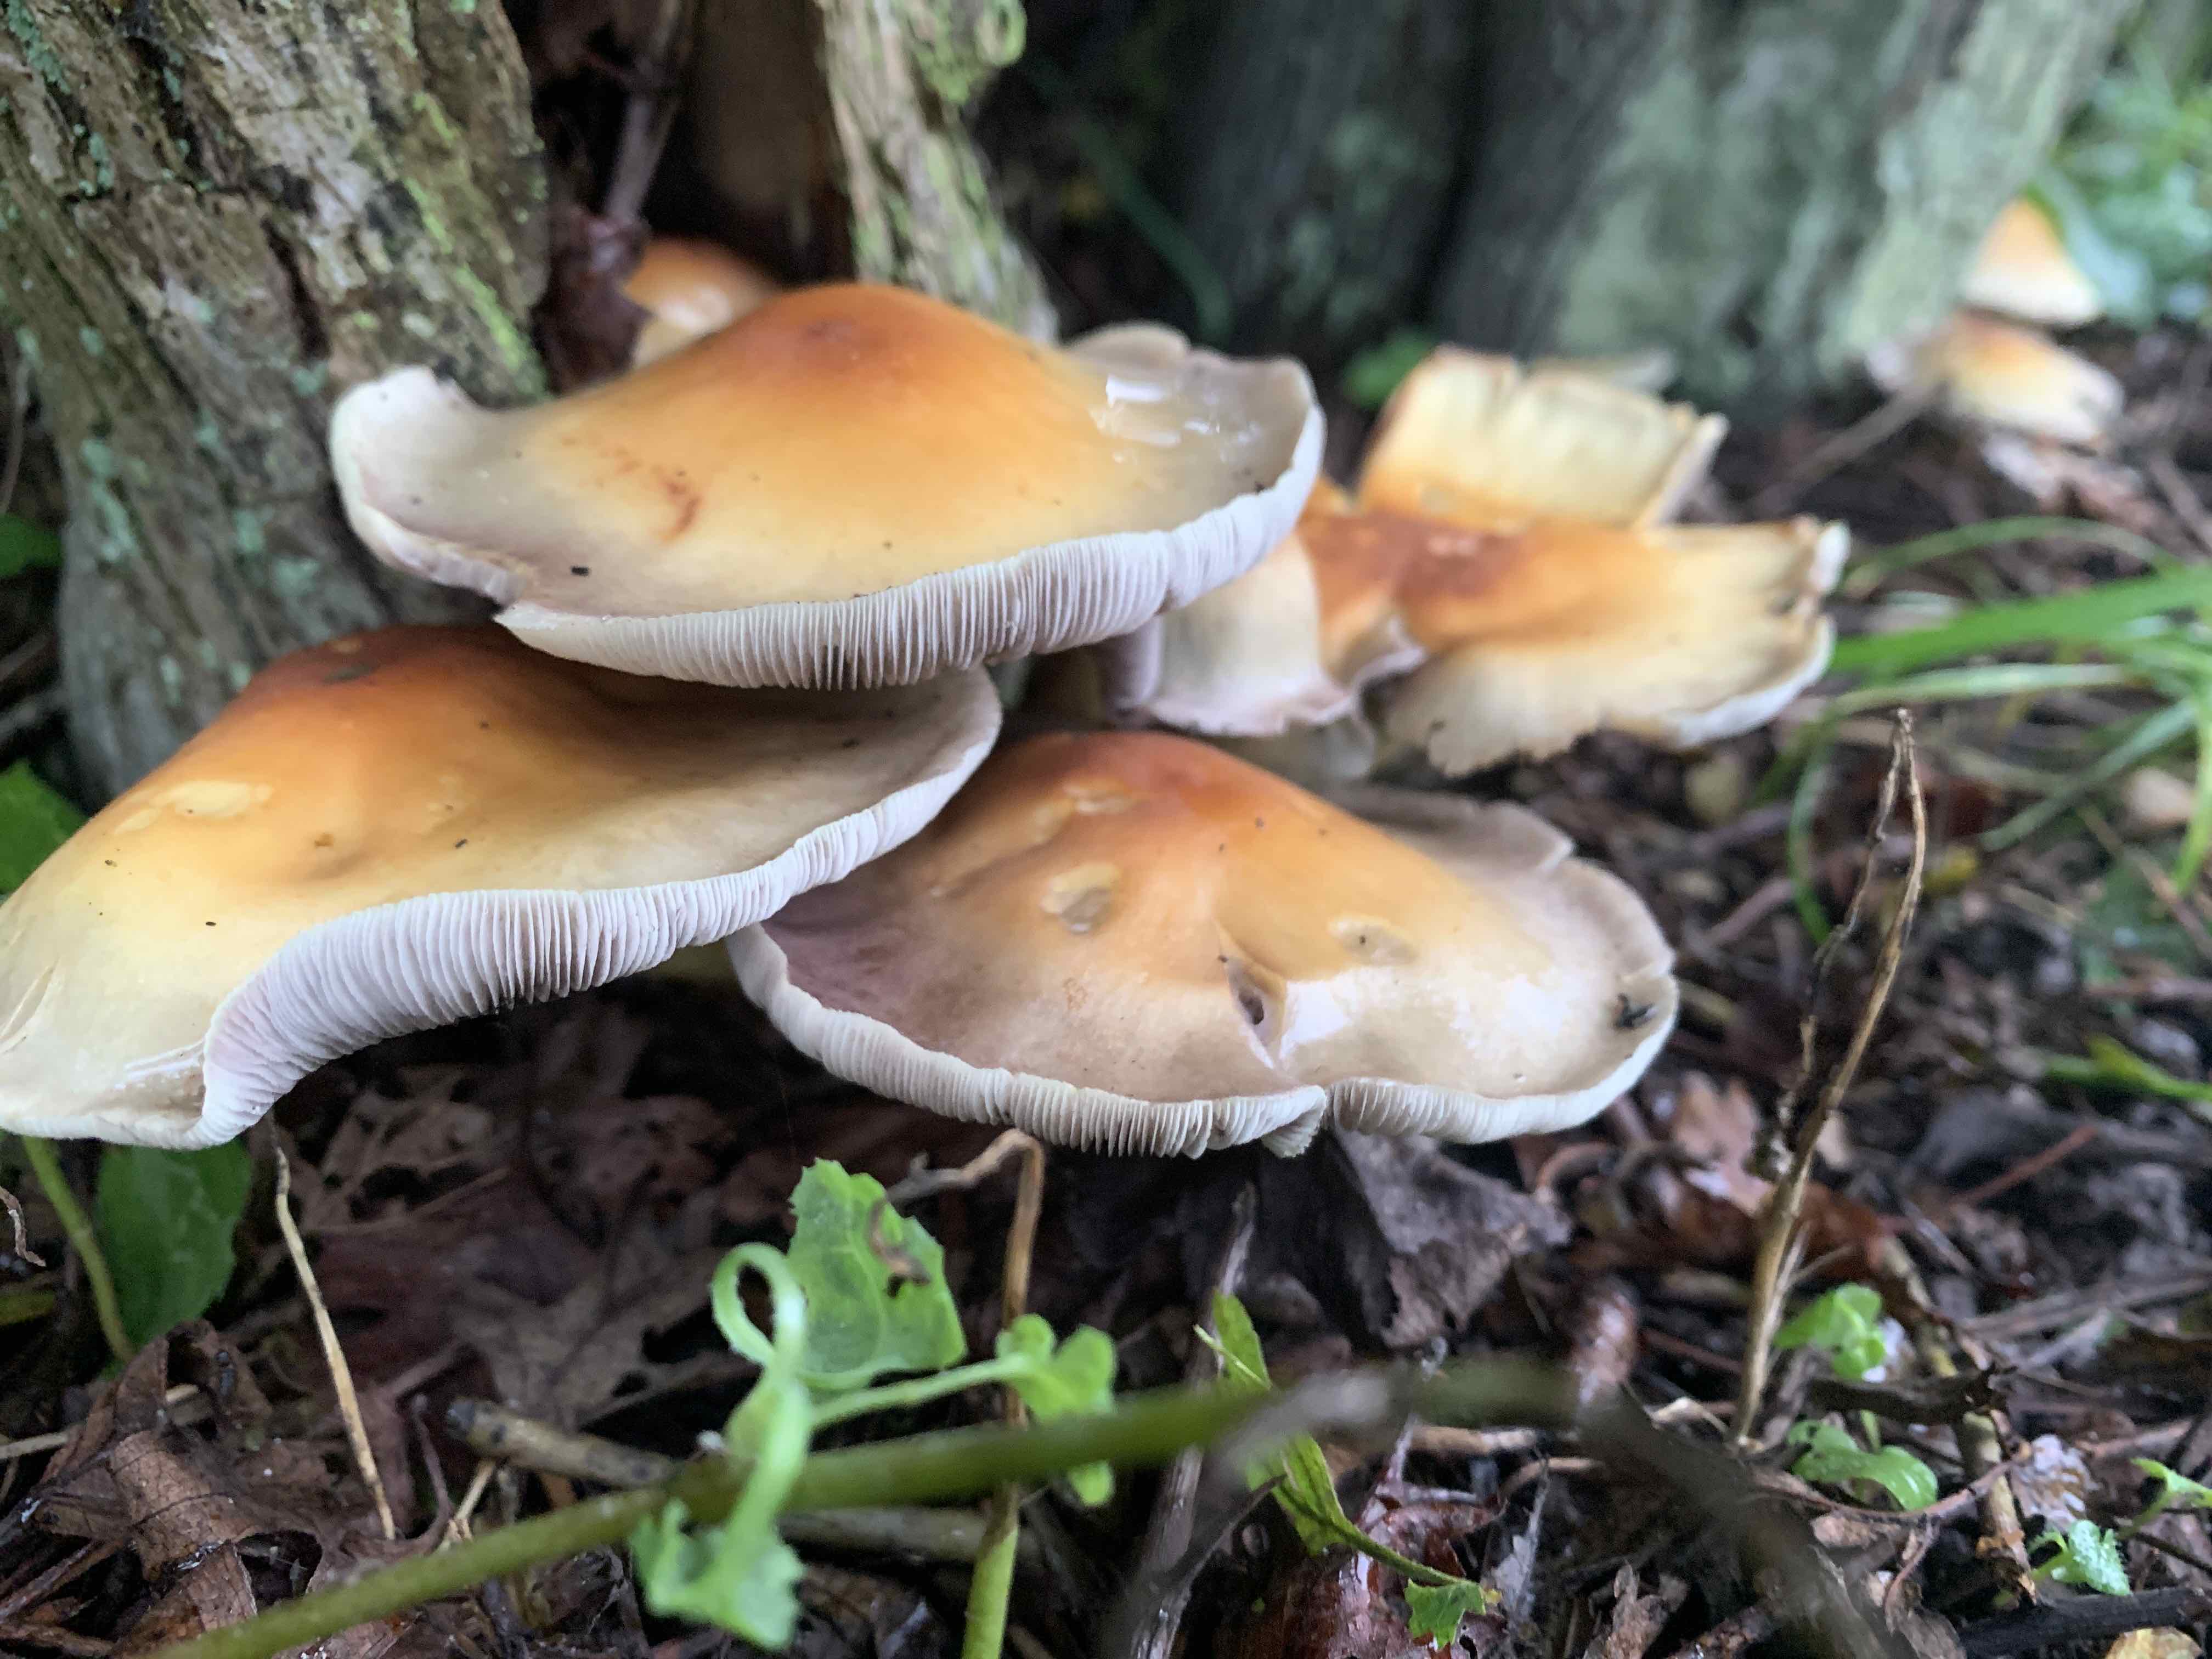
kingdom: Fungi
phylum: Basidiomycota
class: Agaricomycetes
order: Agaricales
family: Strophariaceae
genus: Hypholoma
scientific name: Hypholoma
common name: svovlhat
